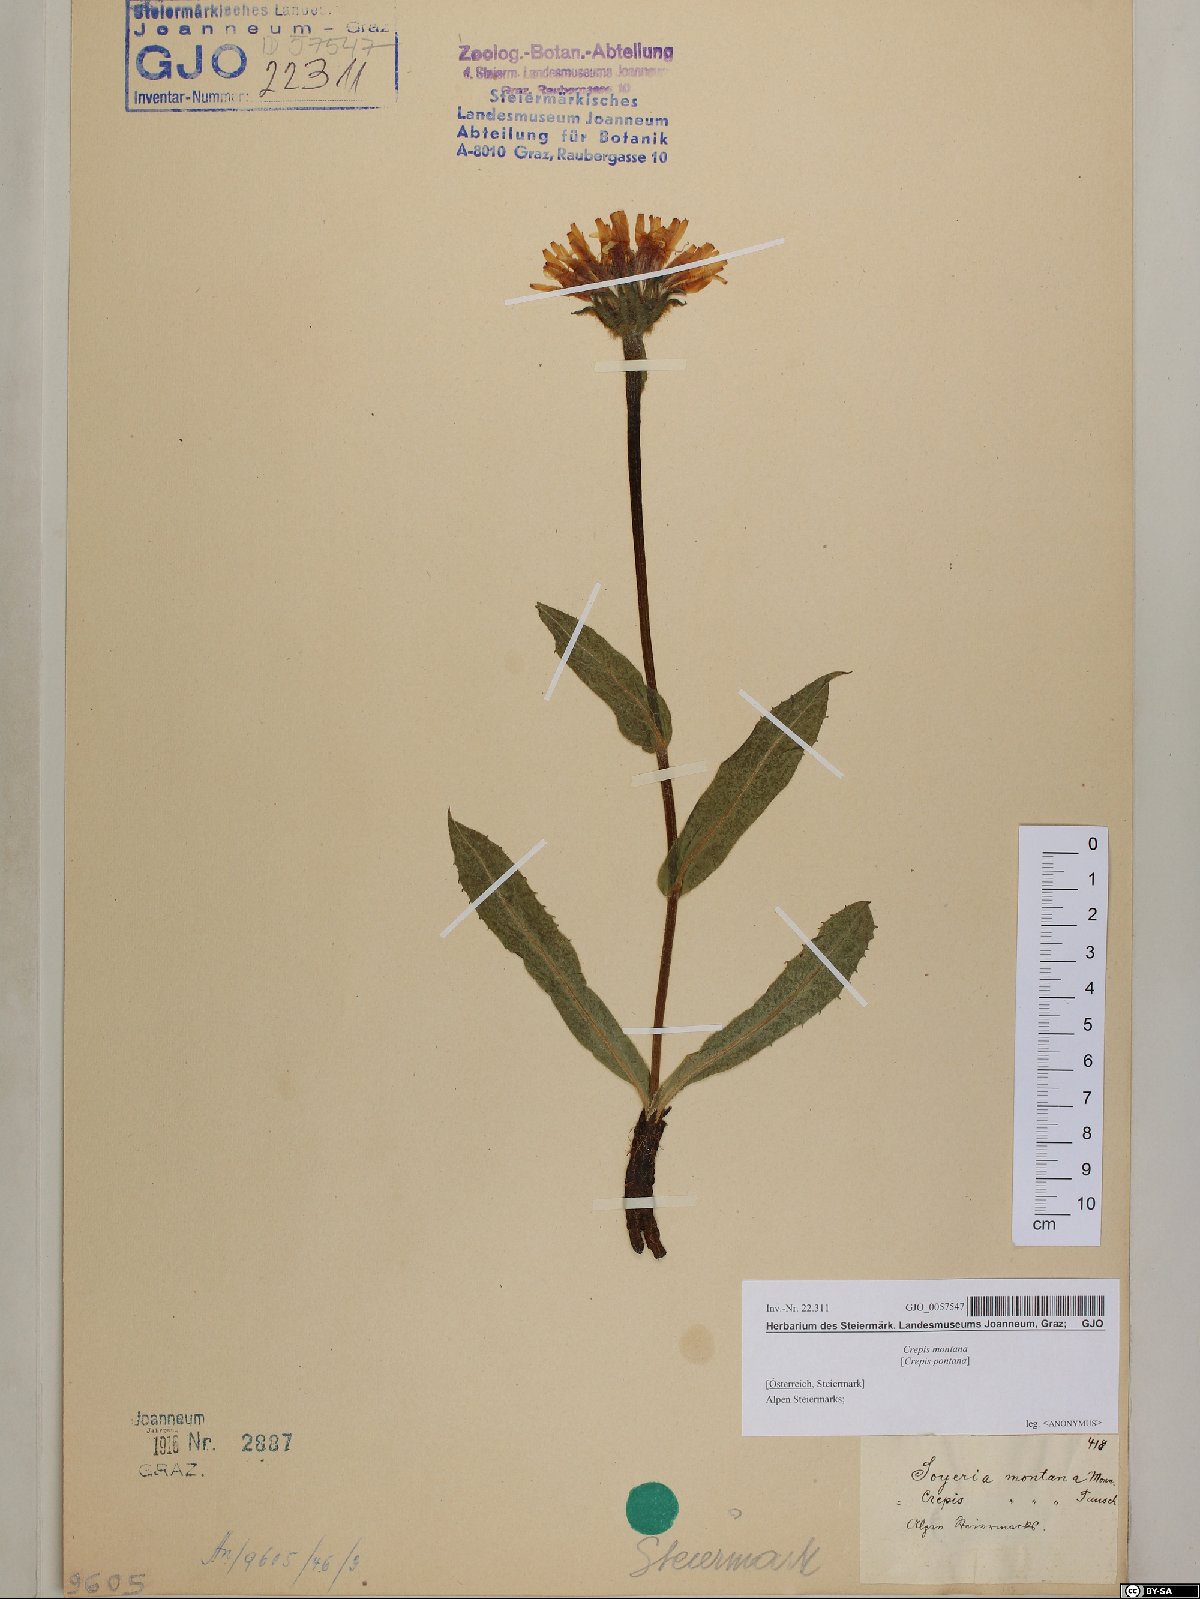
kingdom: Plantae
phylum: Tracheophyta
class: Magnoliopsida
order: Asterales
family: Asteraceae
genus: Crepis
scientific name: Crepis pontana
